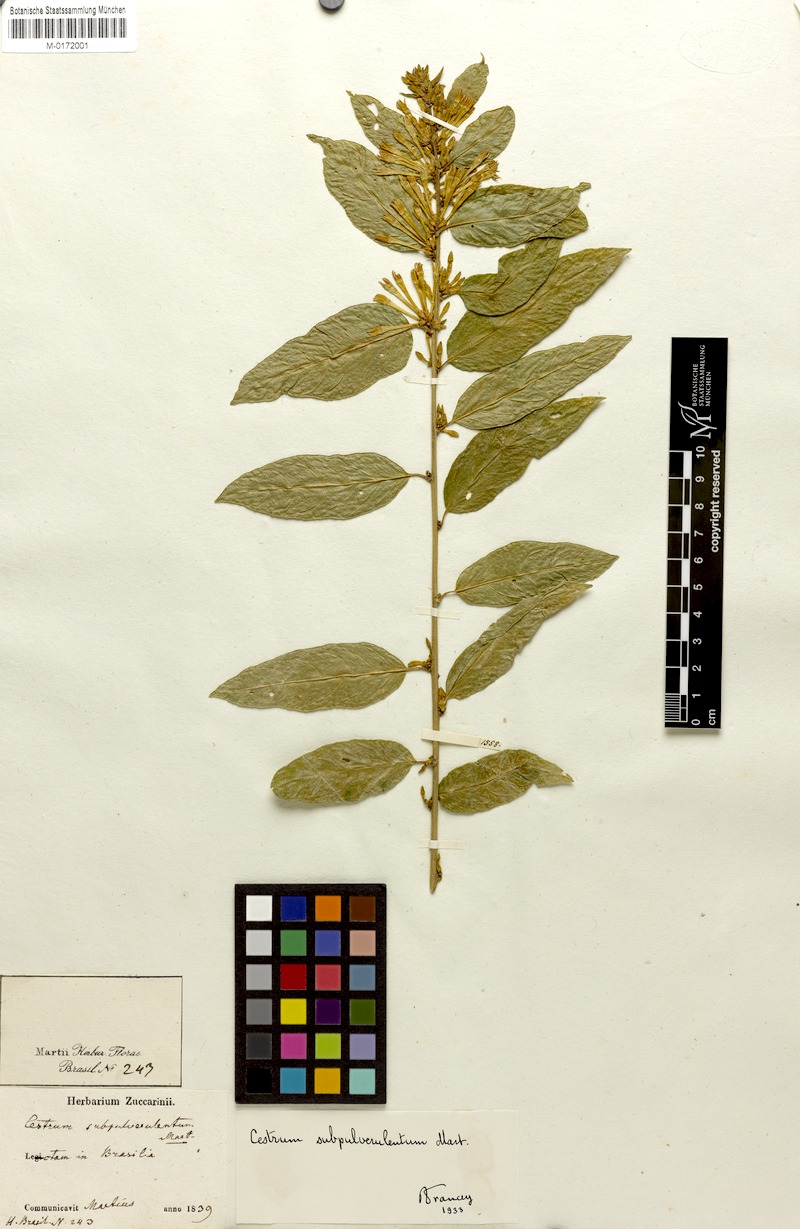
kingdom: Plantae
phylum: Tracheophyta
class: Magnoliopsida
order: Solanales
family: Solanaceae
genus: Cestrum
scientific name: Cestrum subpulverulentum
